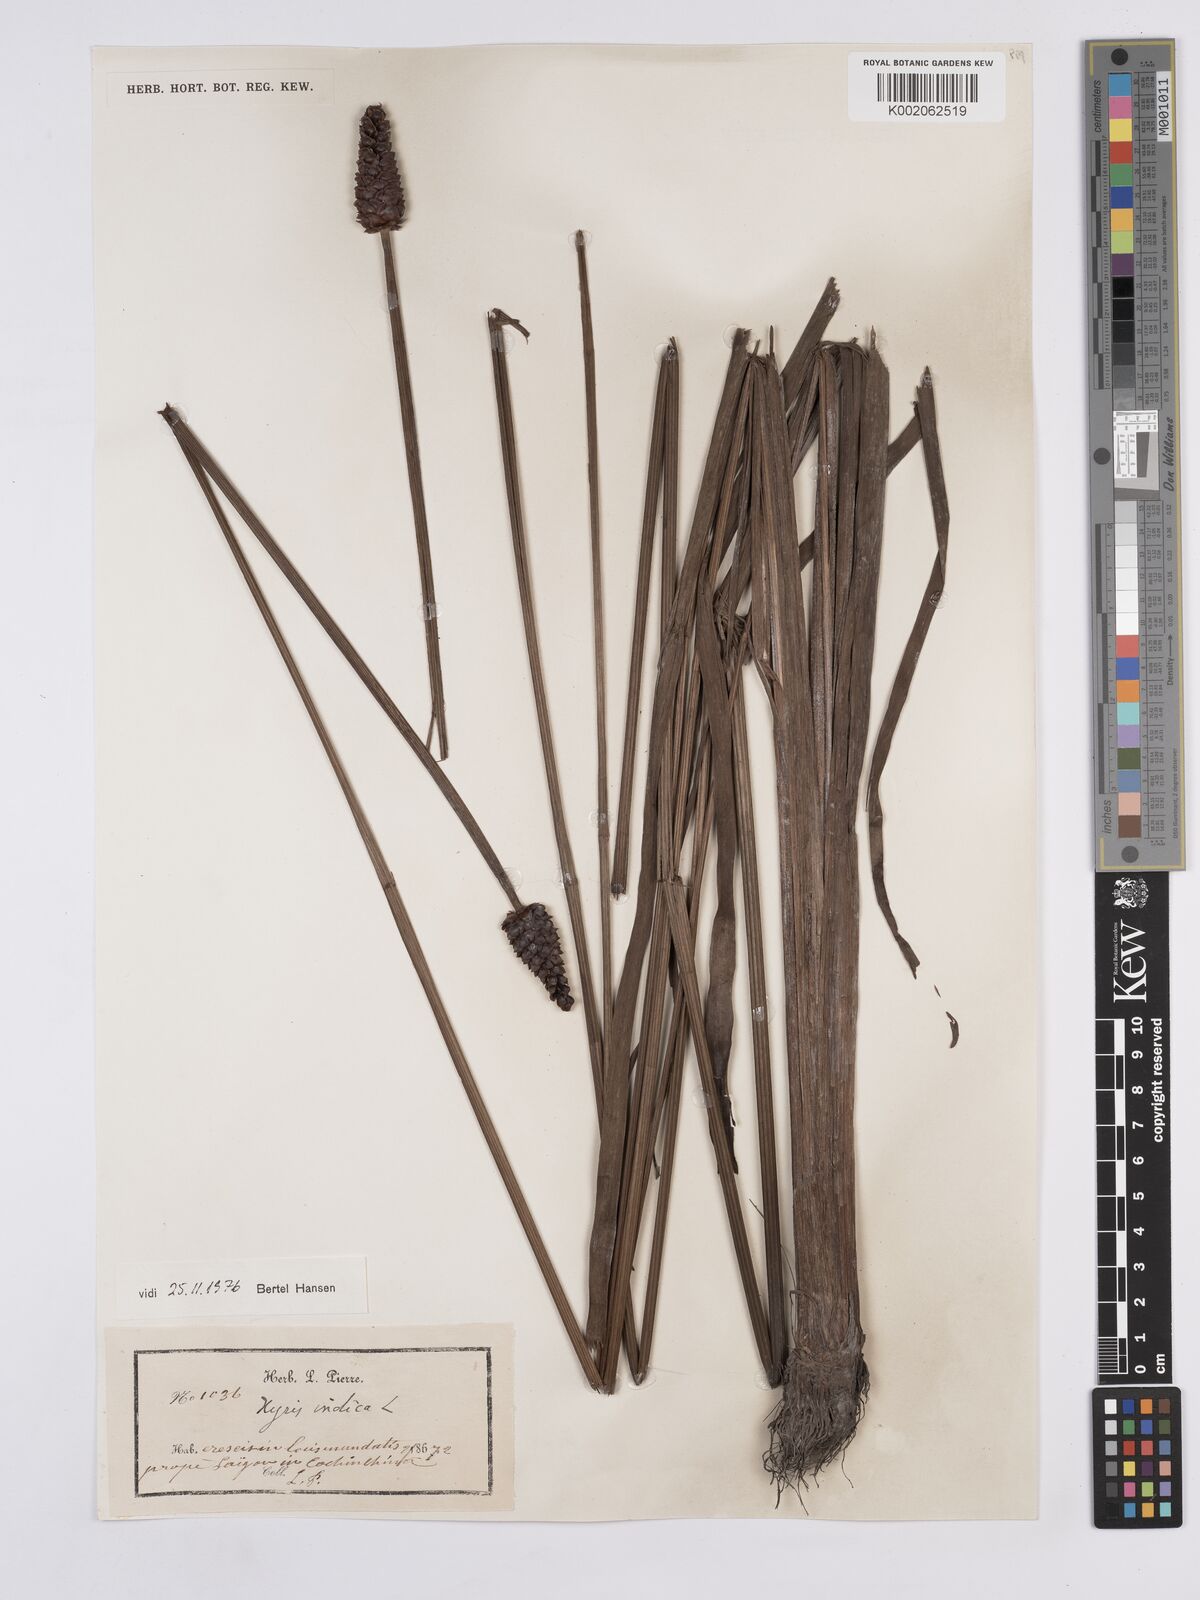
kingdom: Plantae
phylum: Tracheophyta
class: Liliopsida
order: Poales
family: Xyridaceae
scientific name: Xyridaceae
